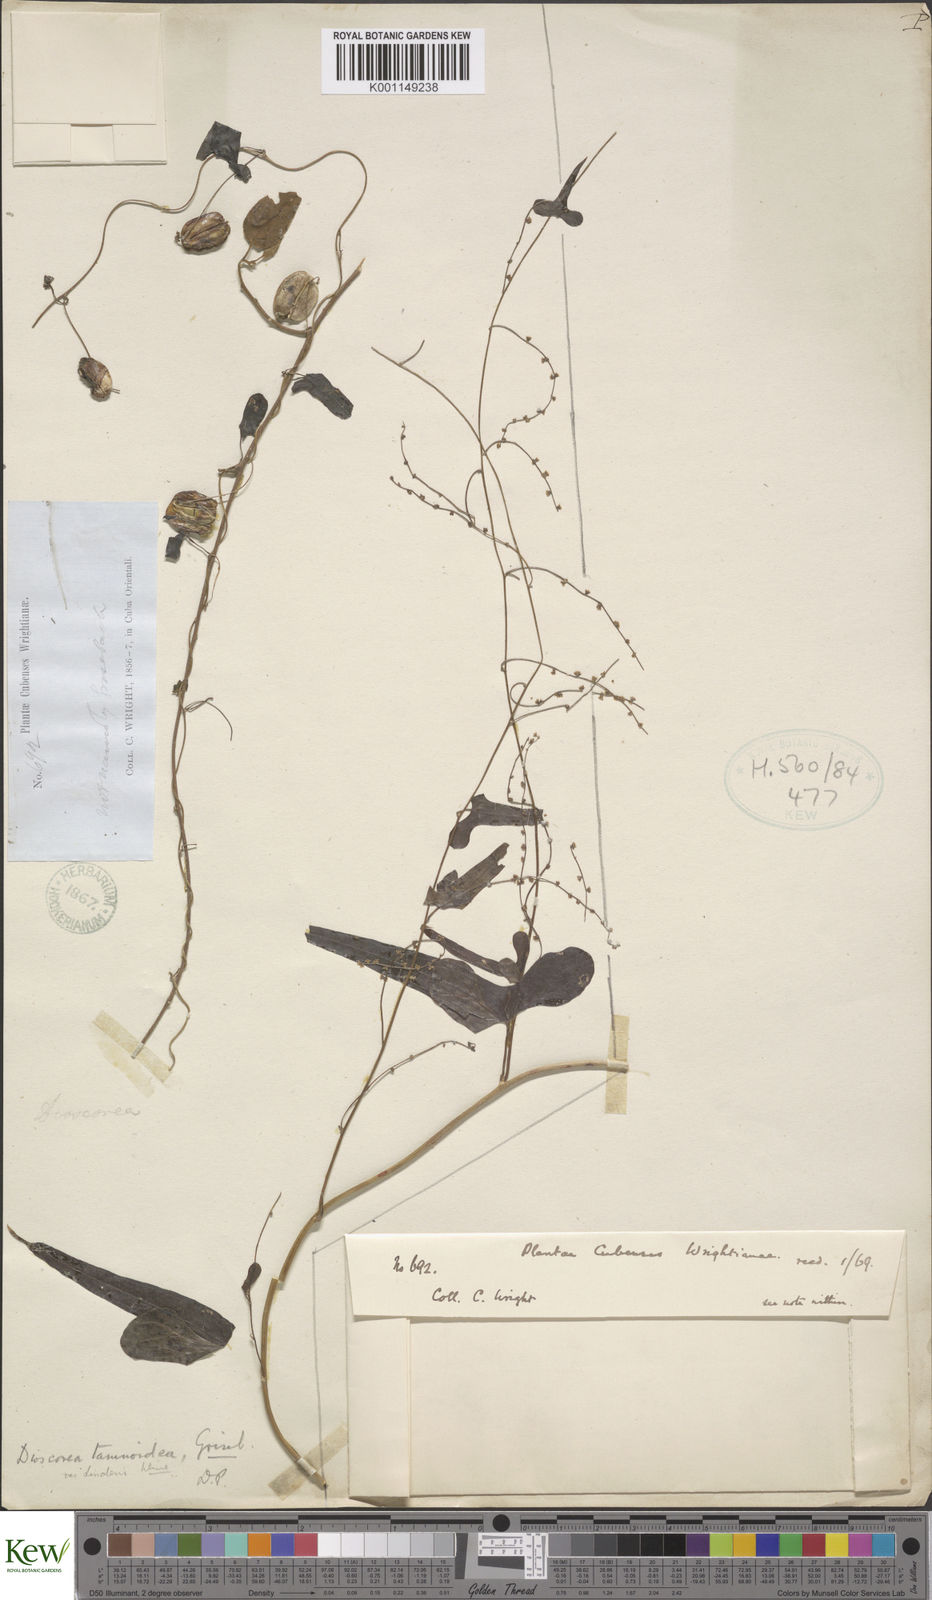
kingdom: Plantae
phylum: Tracheophyta
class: Liliopsida
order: Dioscoreales
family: Dioscoreaceae
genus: Dioscorea
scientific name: Dioscorea tamoidea
